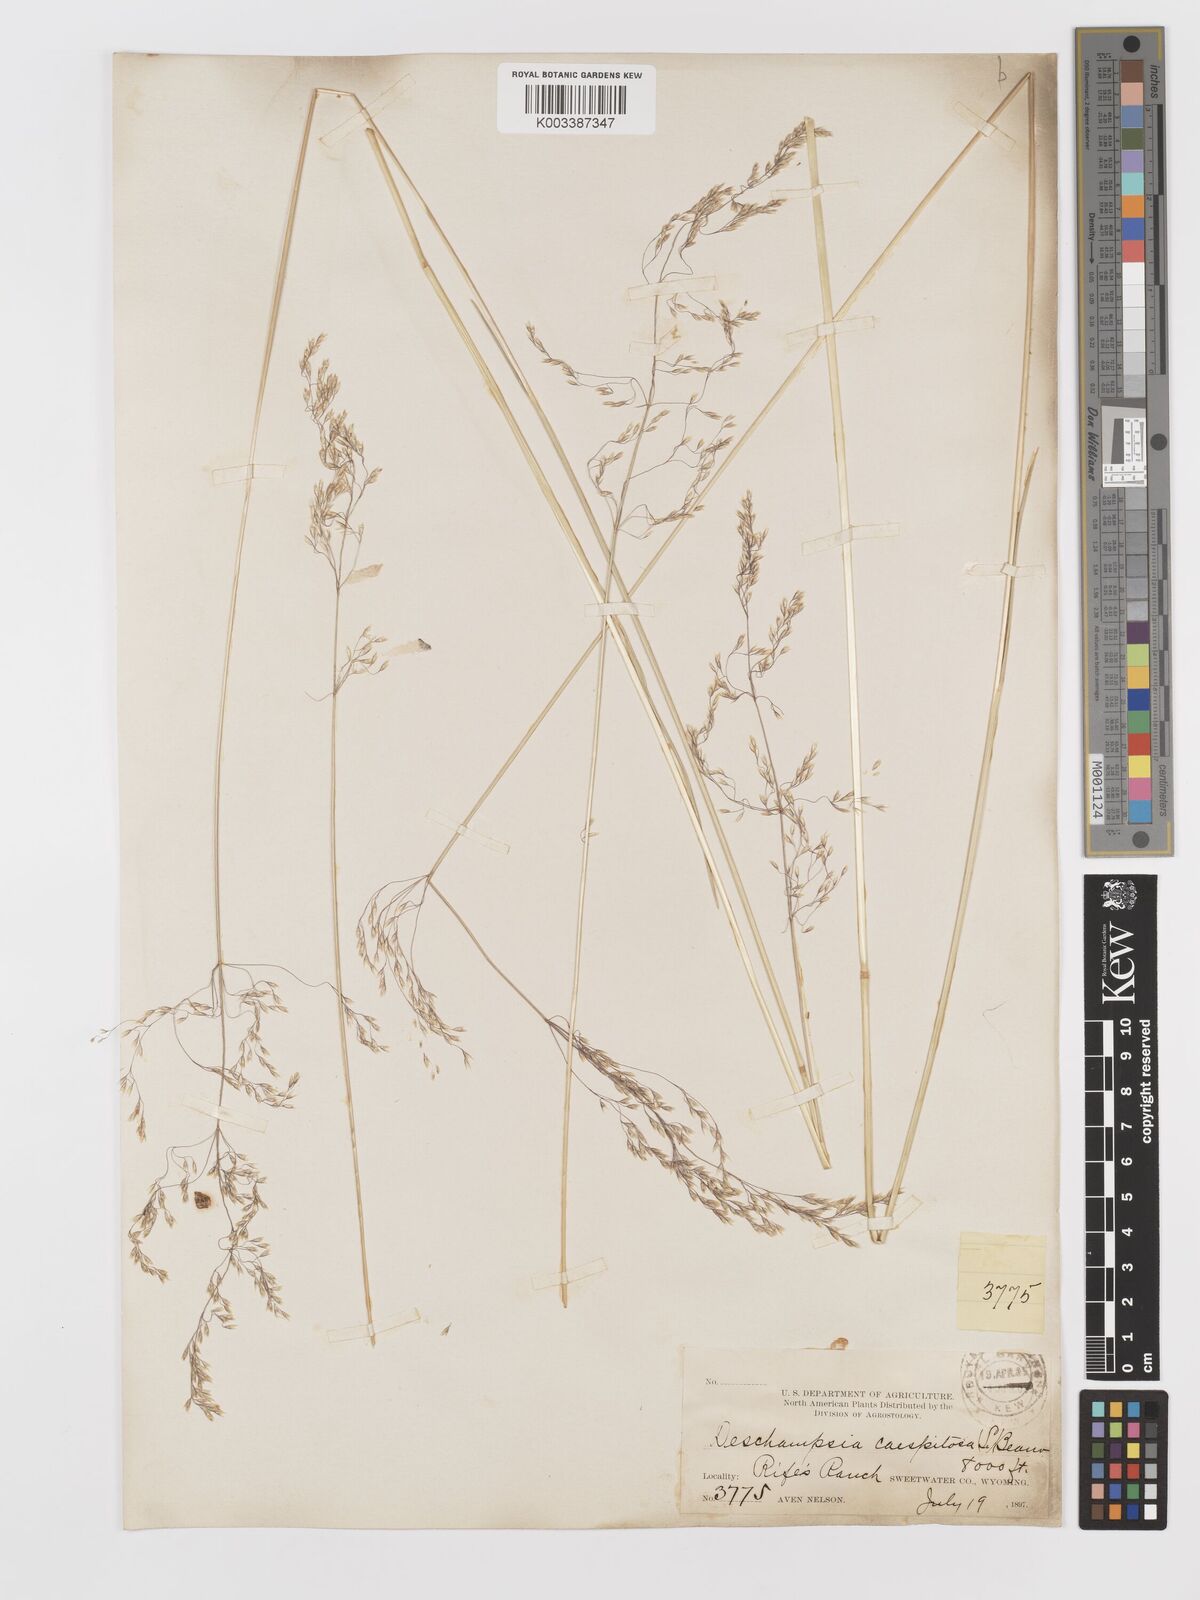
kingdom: Plantae
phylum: Tracheophyta
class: Liliopsida
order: Poales
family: Poaceae
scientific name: Poaceae
